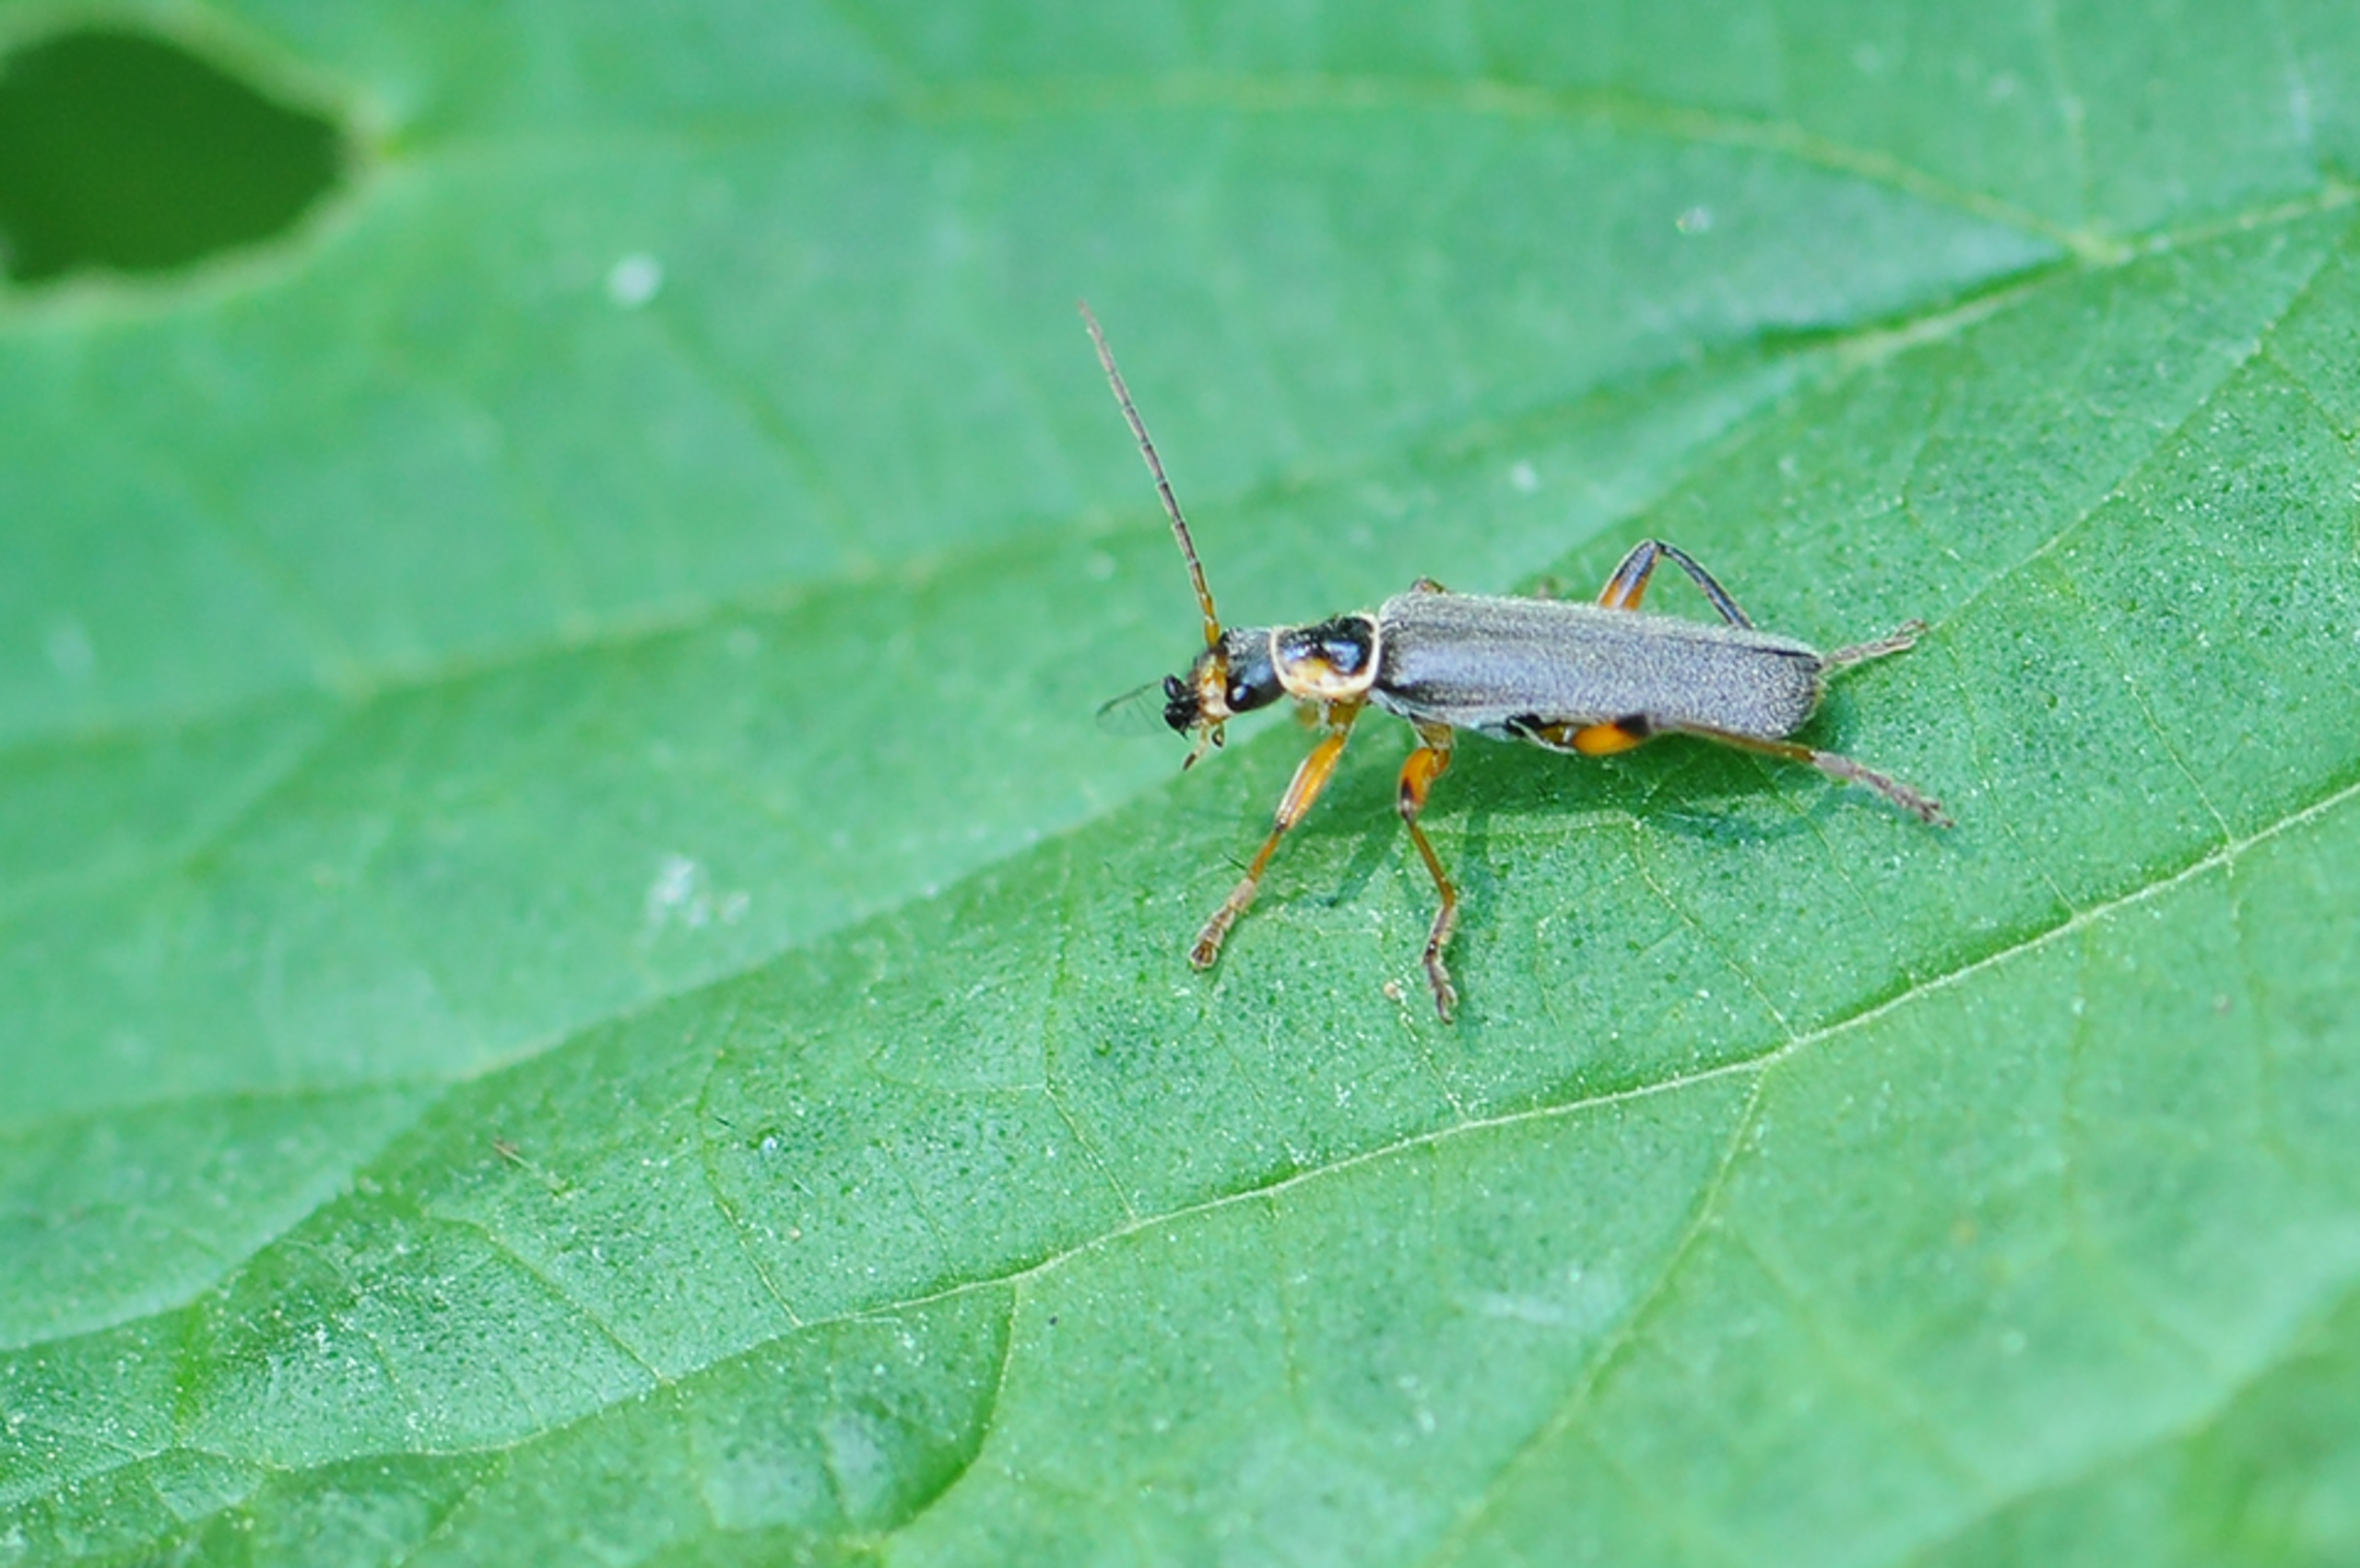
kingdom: Animalia
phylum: Arthropoda
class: Insecta
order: Coleoptera
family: Cantharidae
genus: Cantharis
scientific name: Cantharis nigricans
